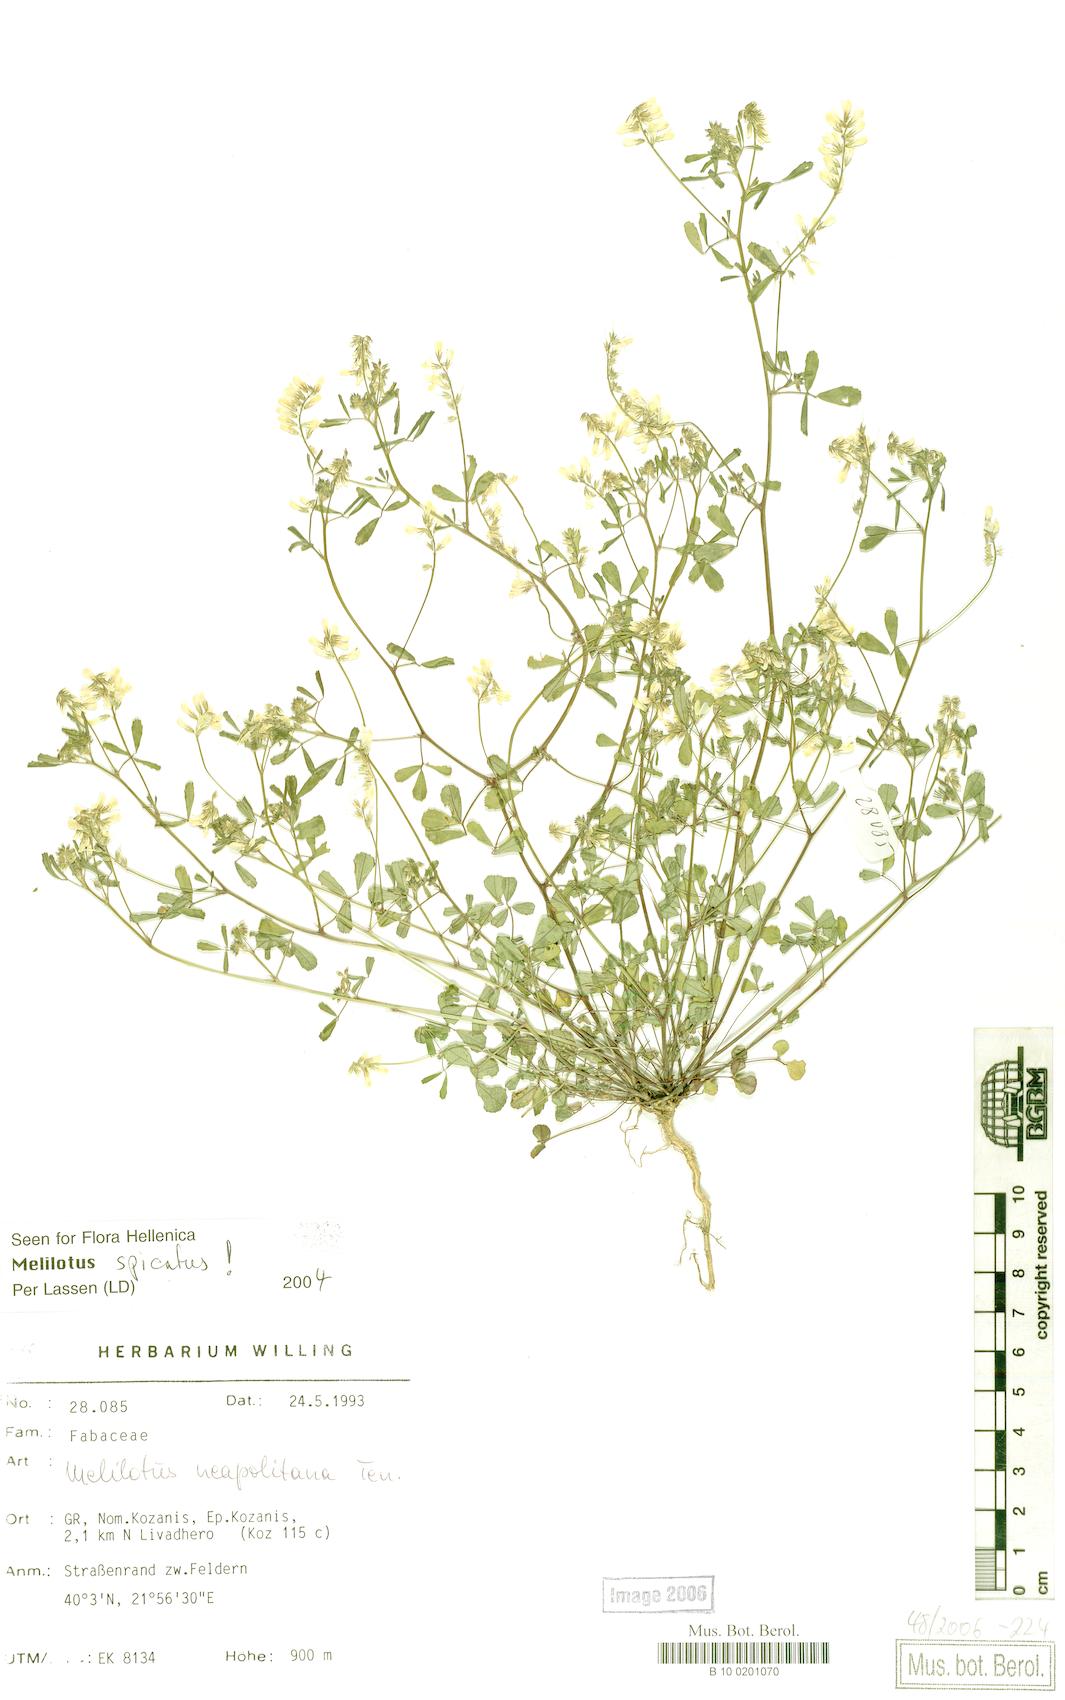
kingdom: Plantae
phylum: Tracheophyta
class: Magnoliopsida
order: Fabales
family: Fabaceae
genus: Melilotus
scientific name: Melilotus neapolitanus
